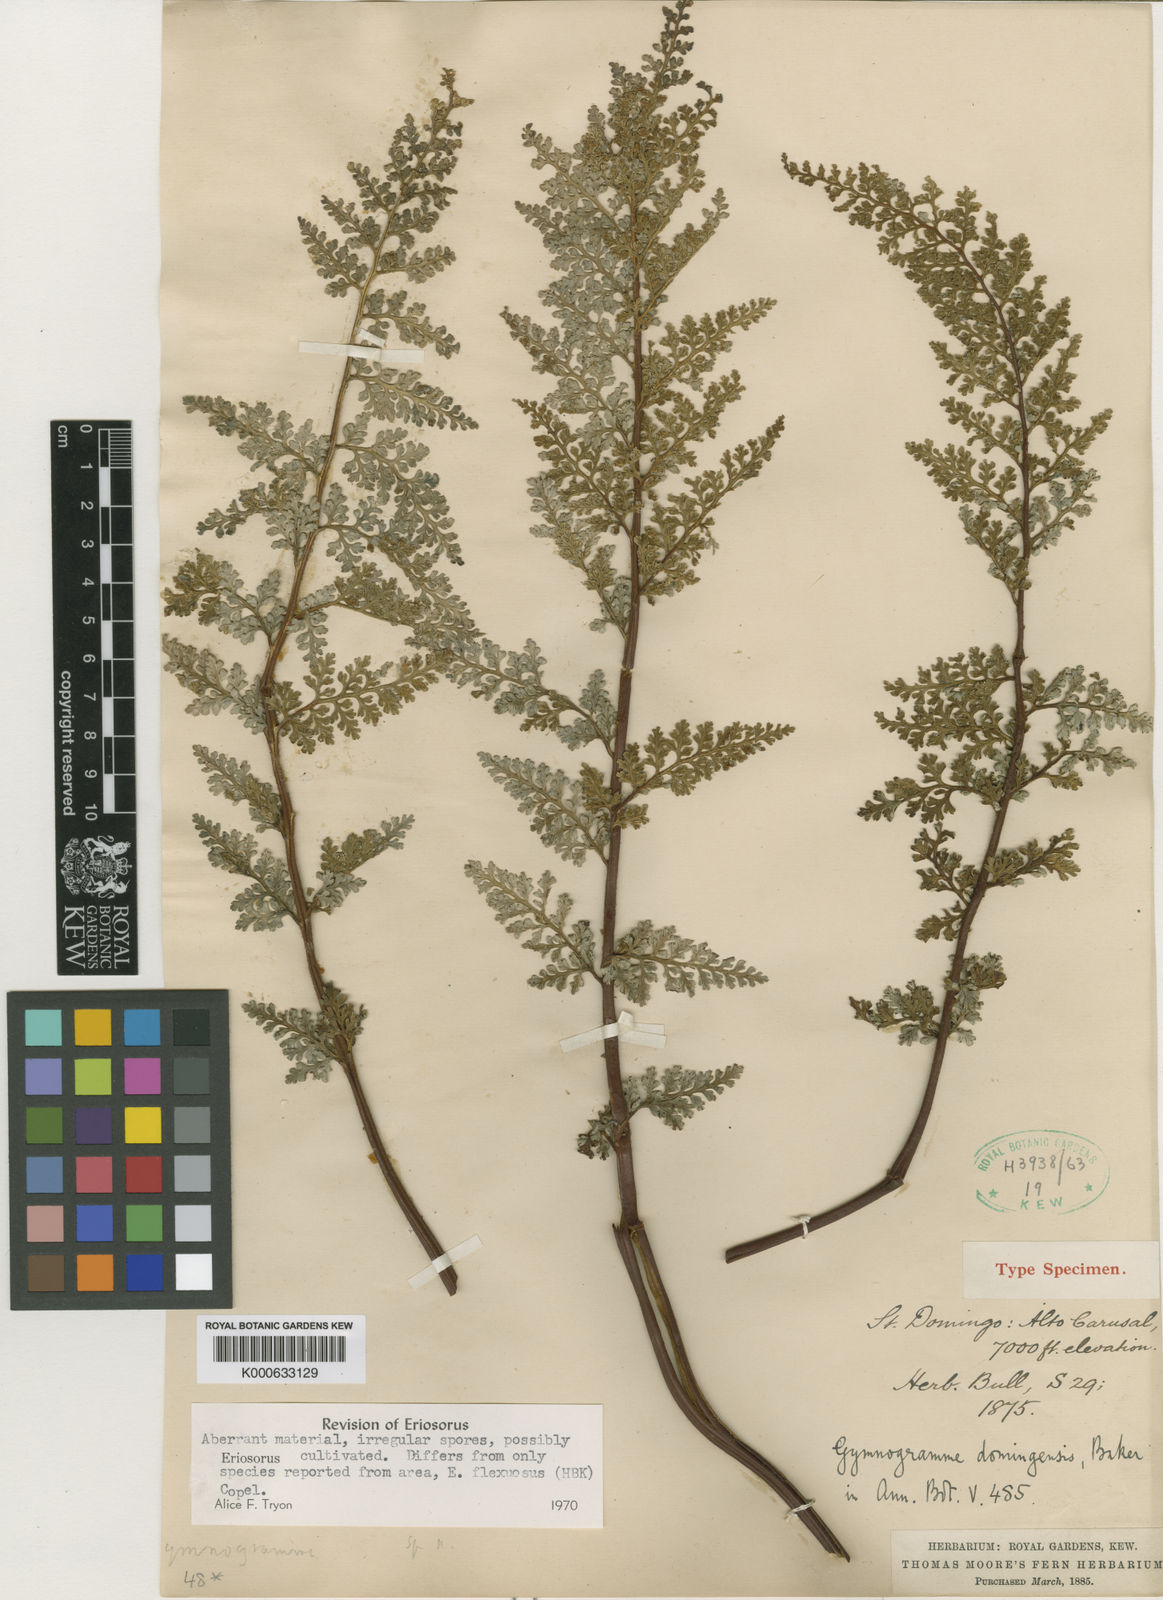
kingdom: Plantae
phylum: Tracheophyta
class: Polypodiopsida
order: Polypodiales
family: Pteridaceae
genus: Jamesonia
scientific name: Jamesonia
